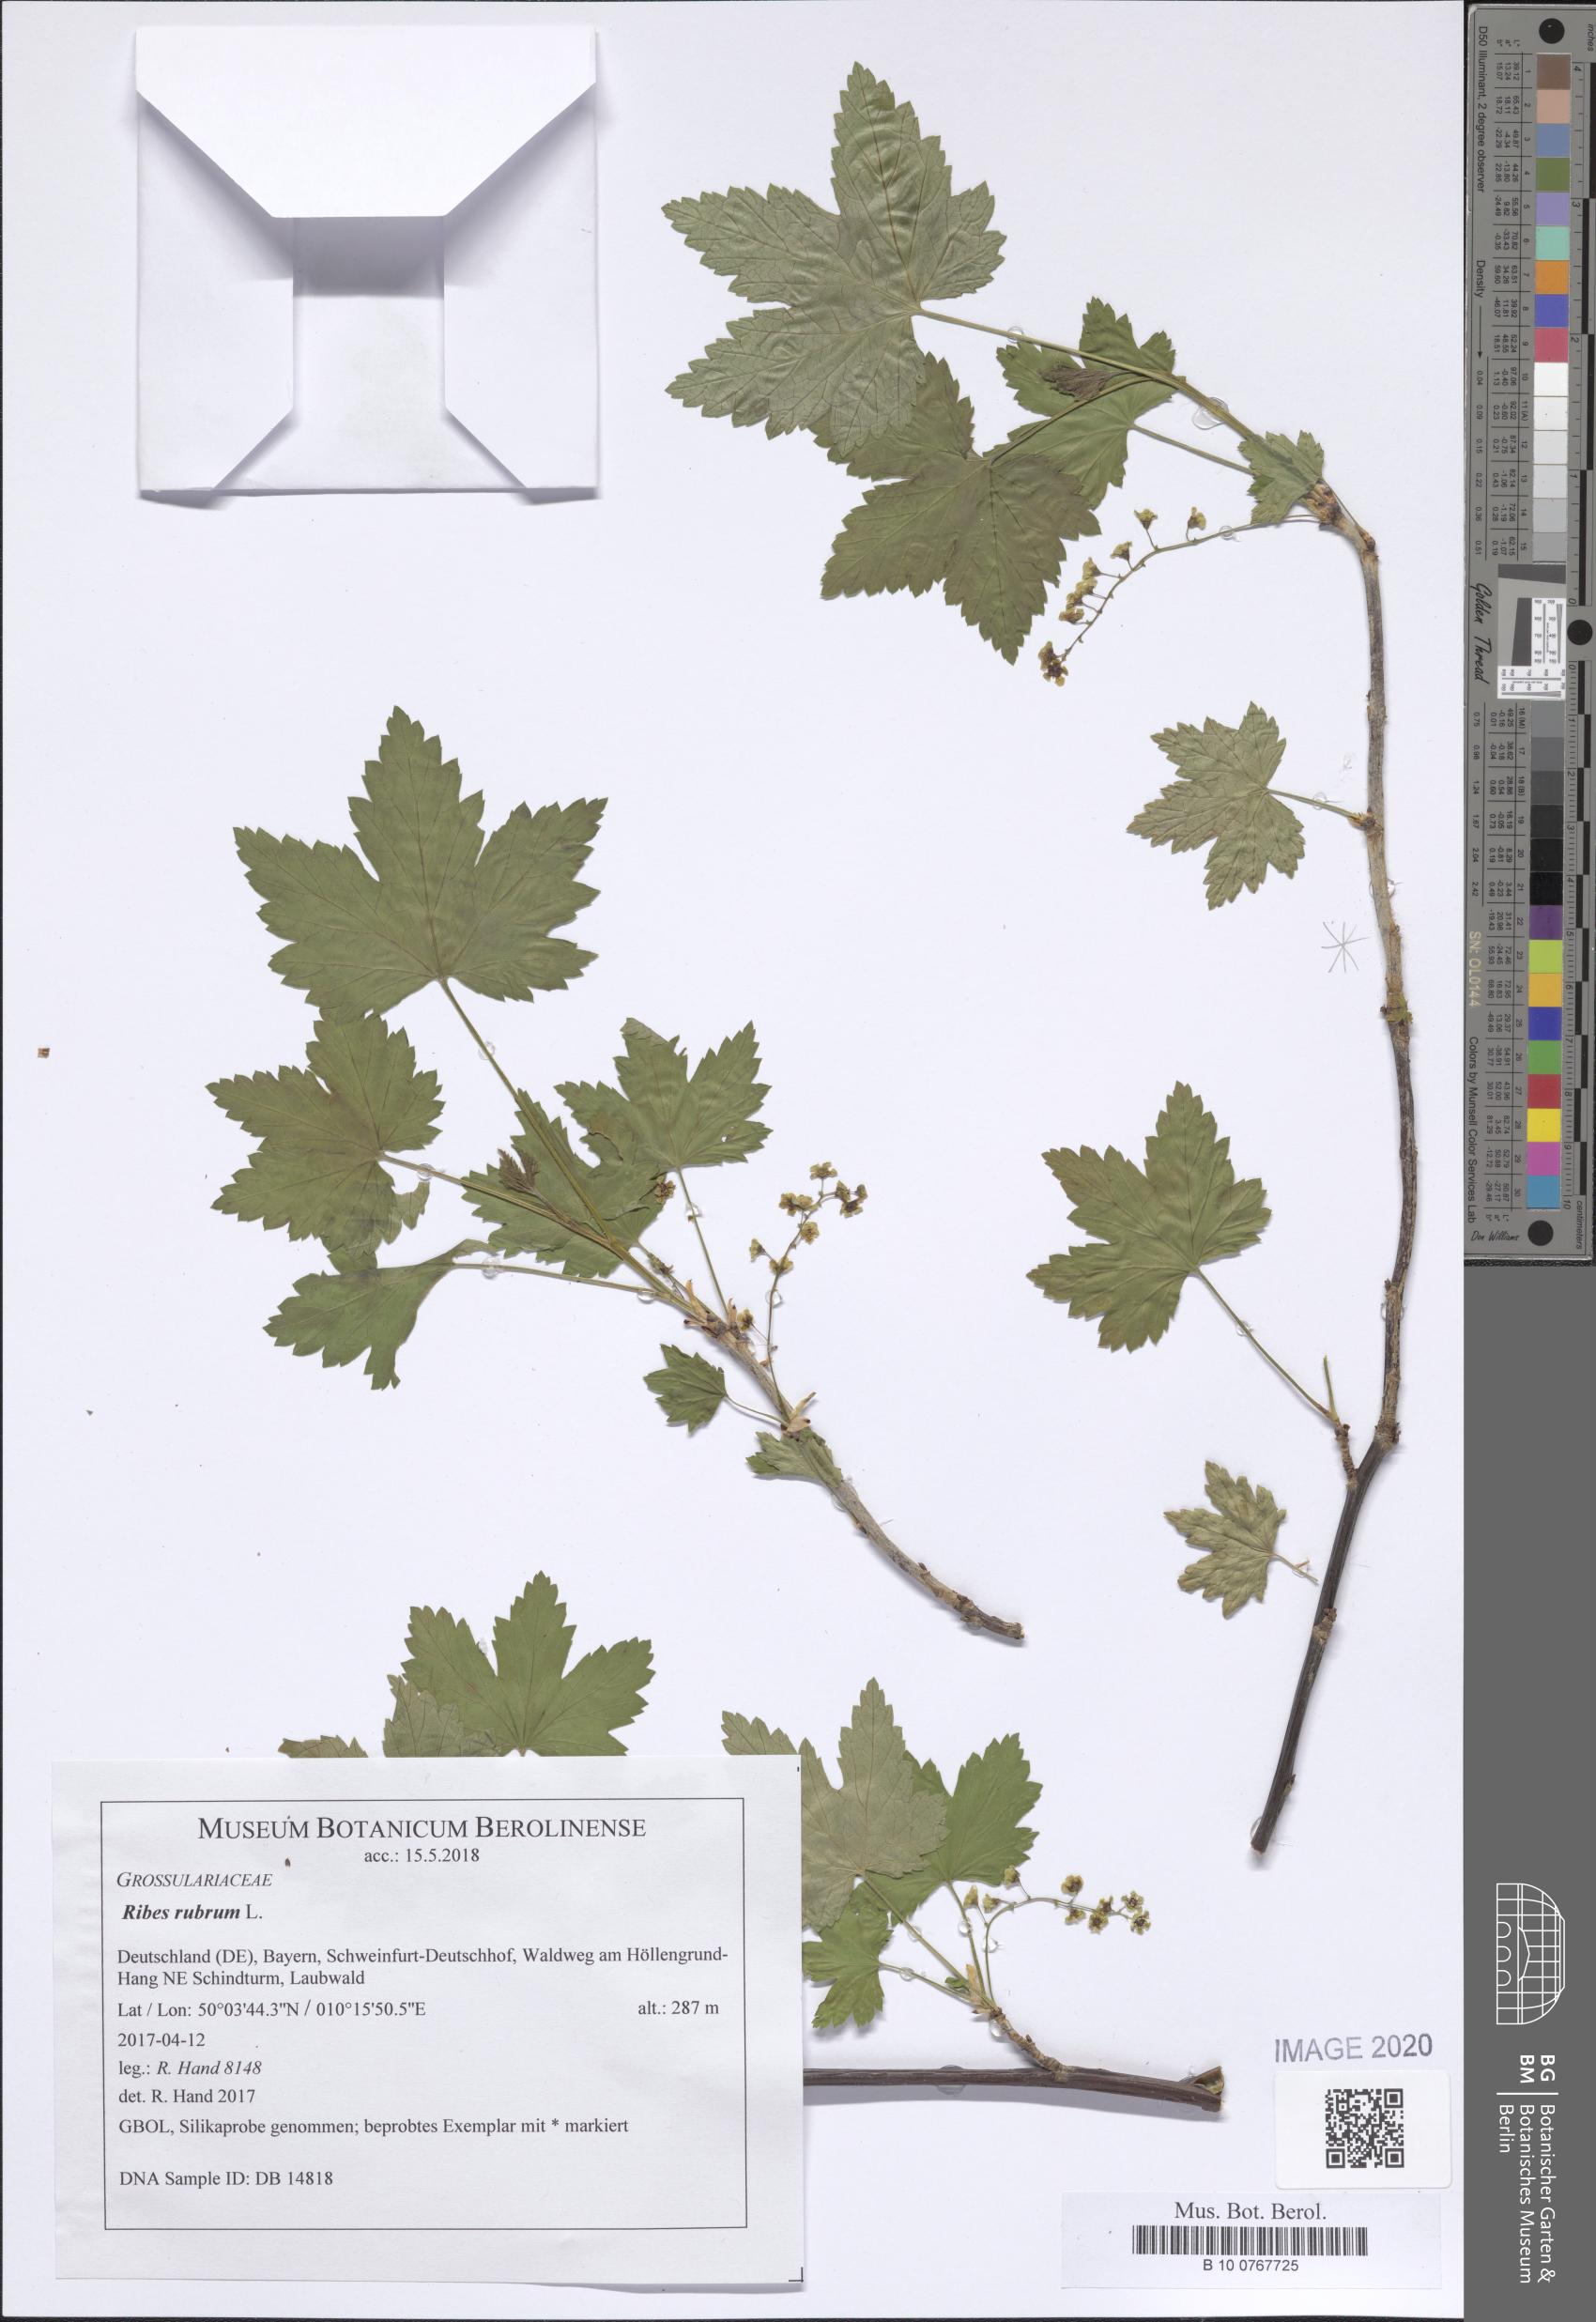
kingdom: Plantae
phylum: Tracheophyta
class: Magnoliopsida
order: Saxifragales
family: Grossulariaceae
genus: Ribes
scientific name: Ribes rubrum
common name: Red currant
